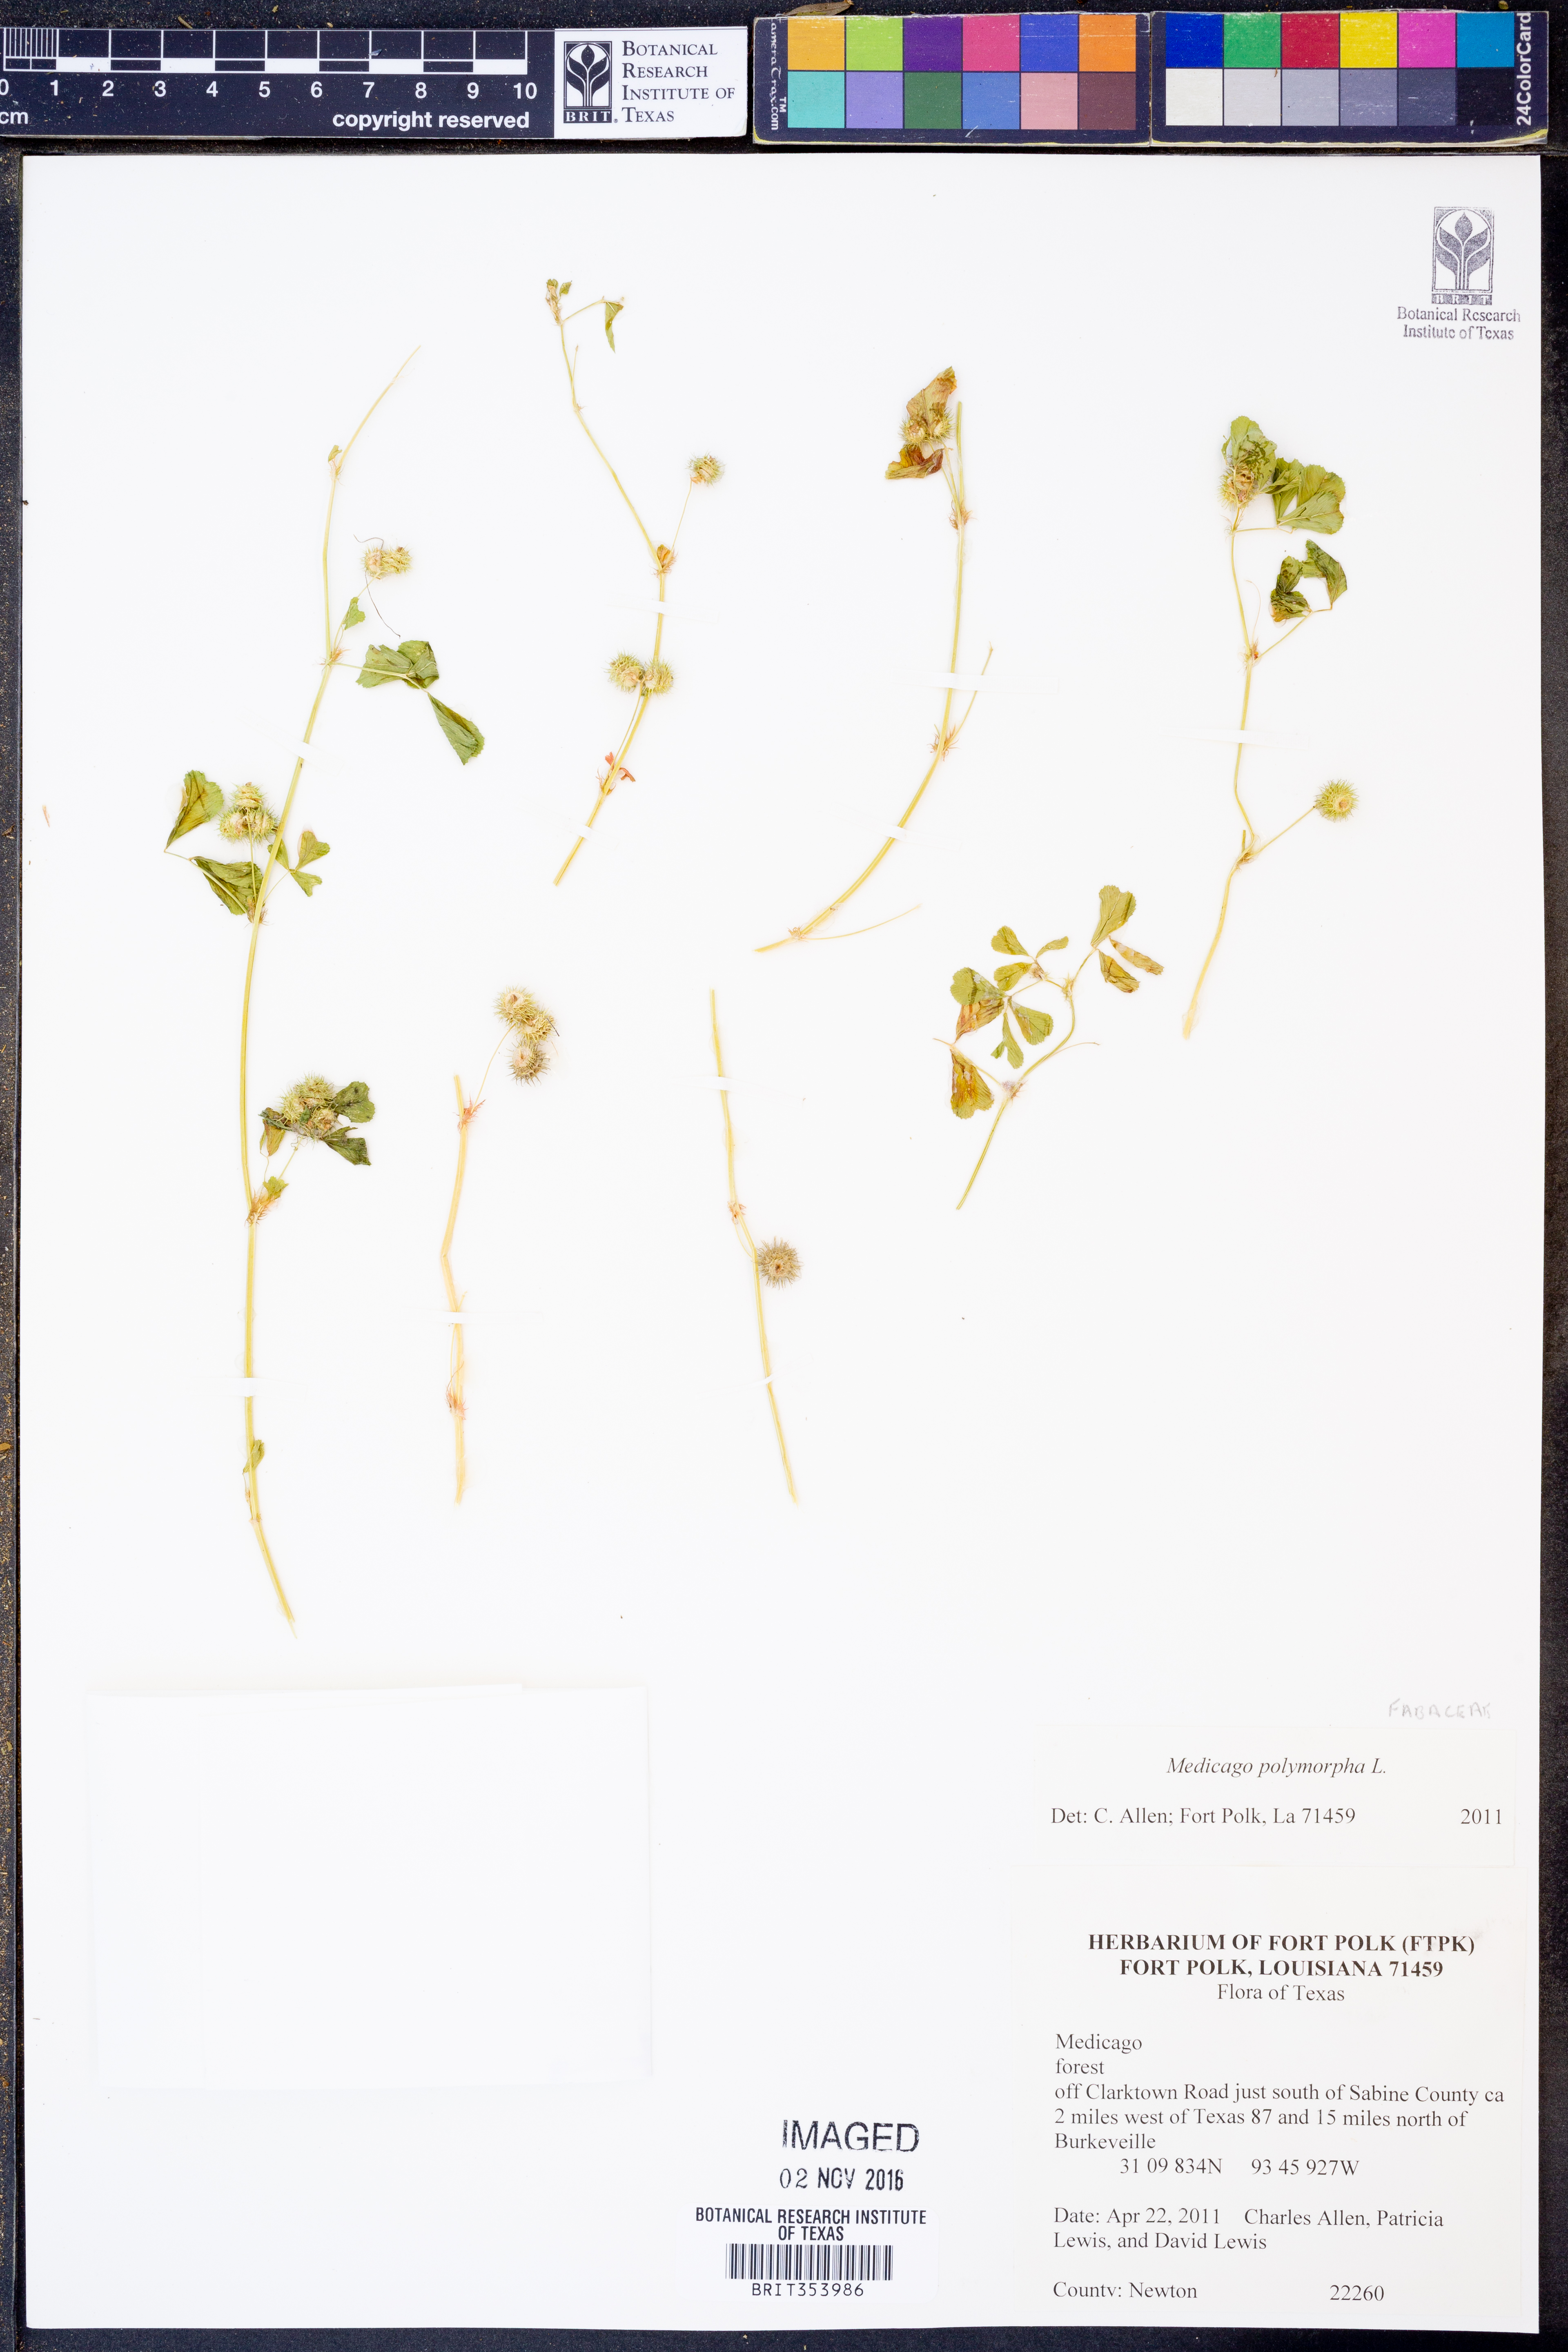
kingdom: Plantae
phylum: Tracheophyta
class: Magnoliopsida
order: Fabales
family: Fabaceae
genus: Medicago
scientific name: Medicago
